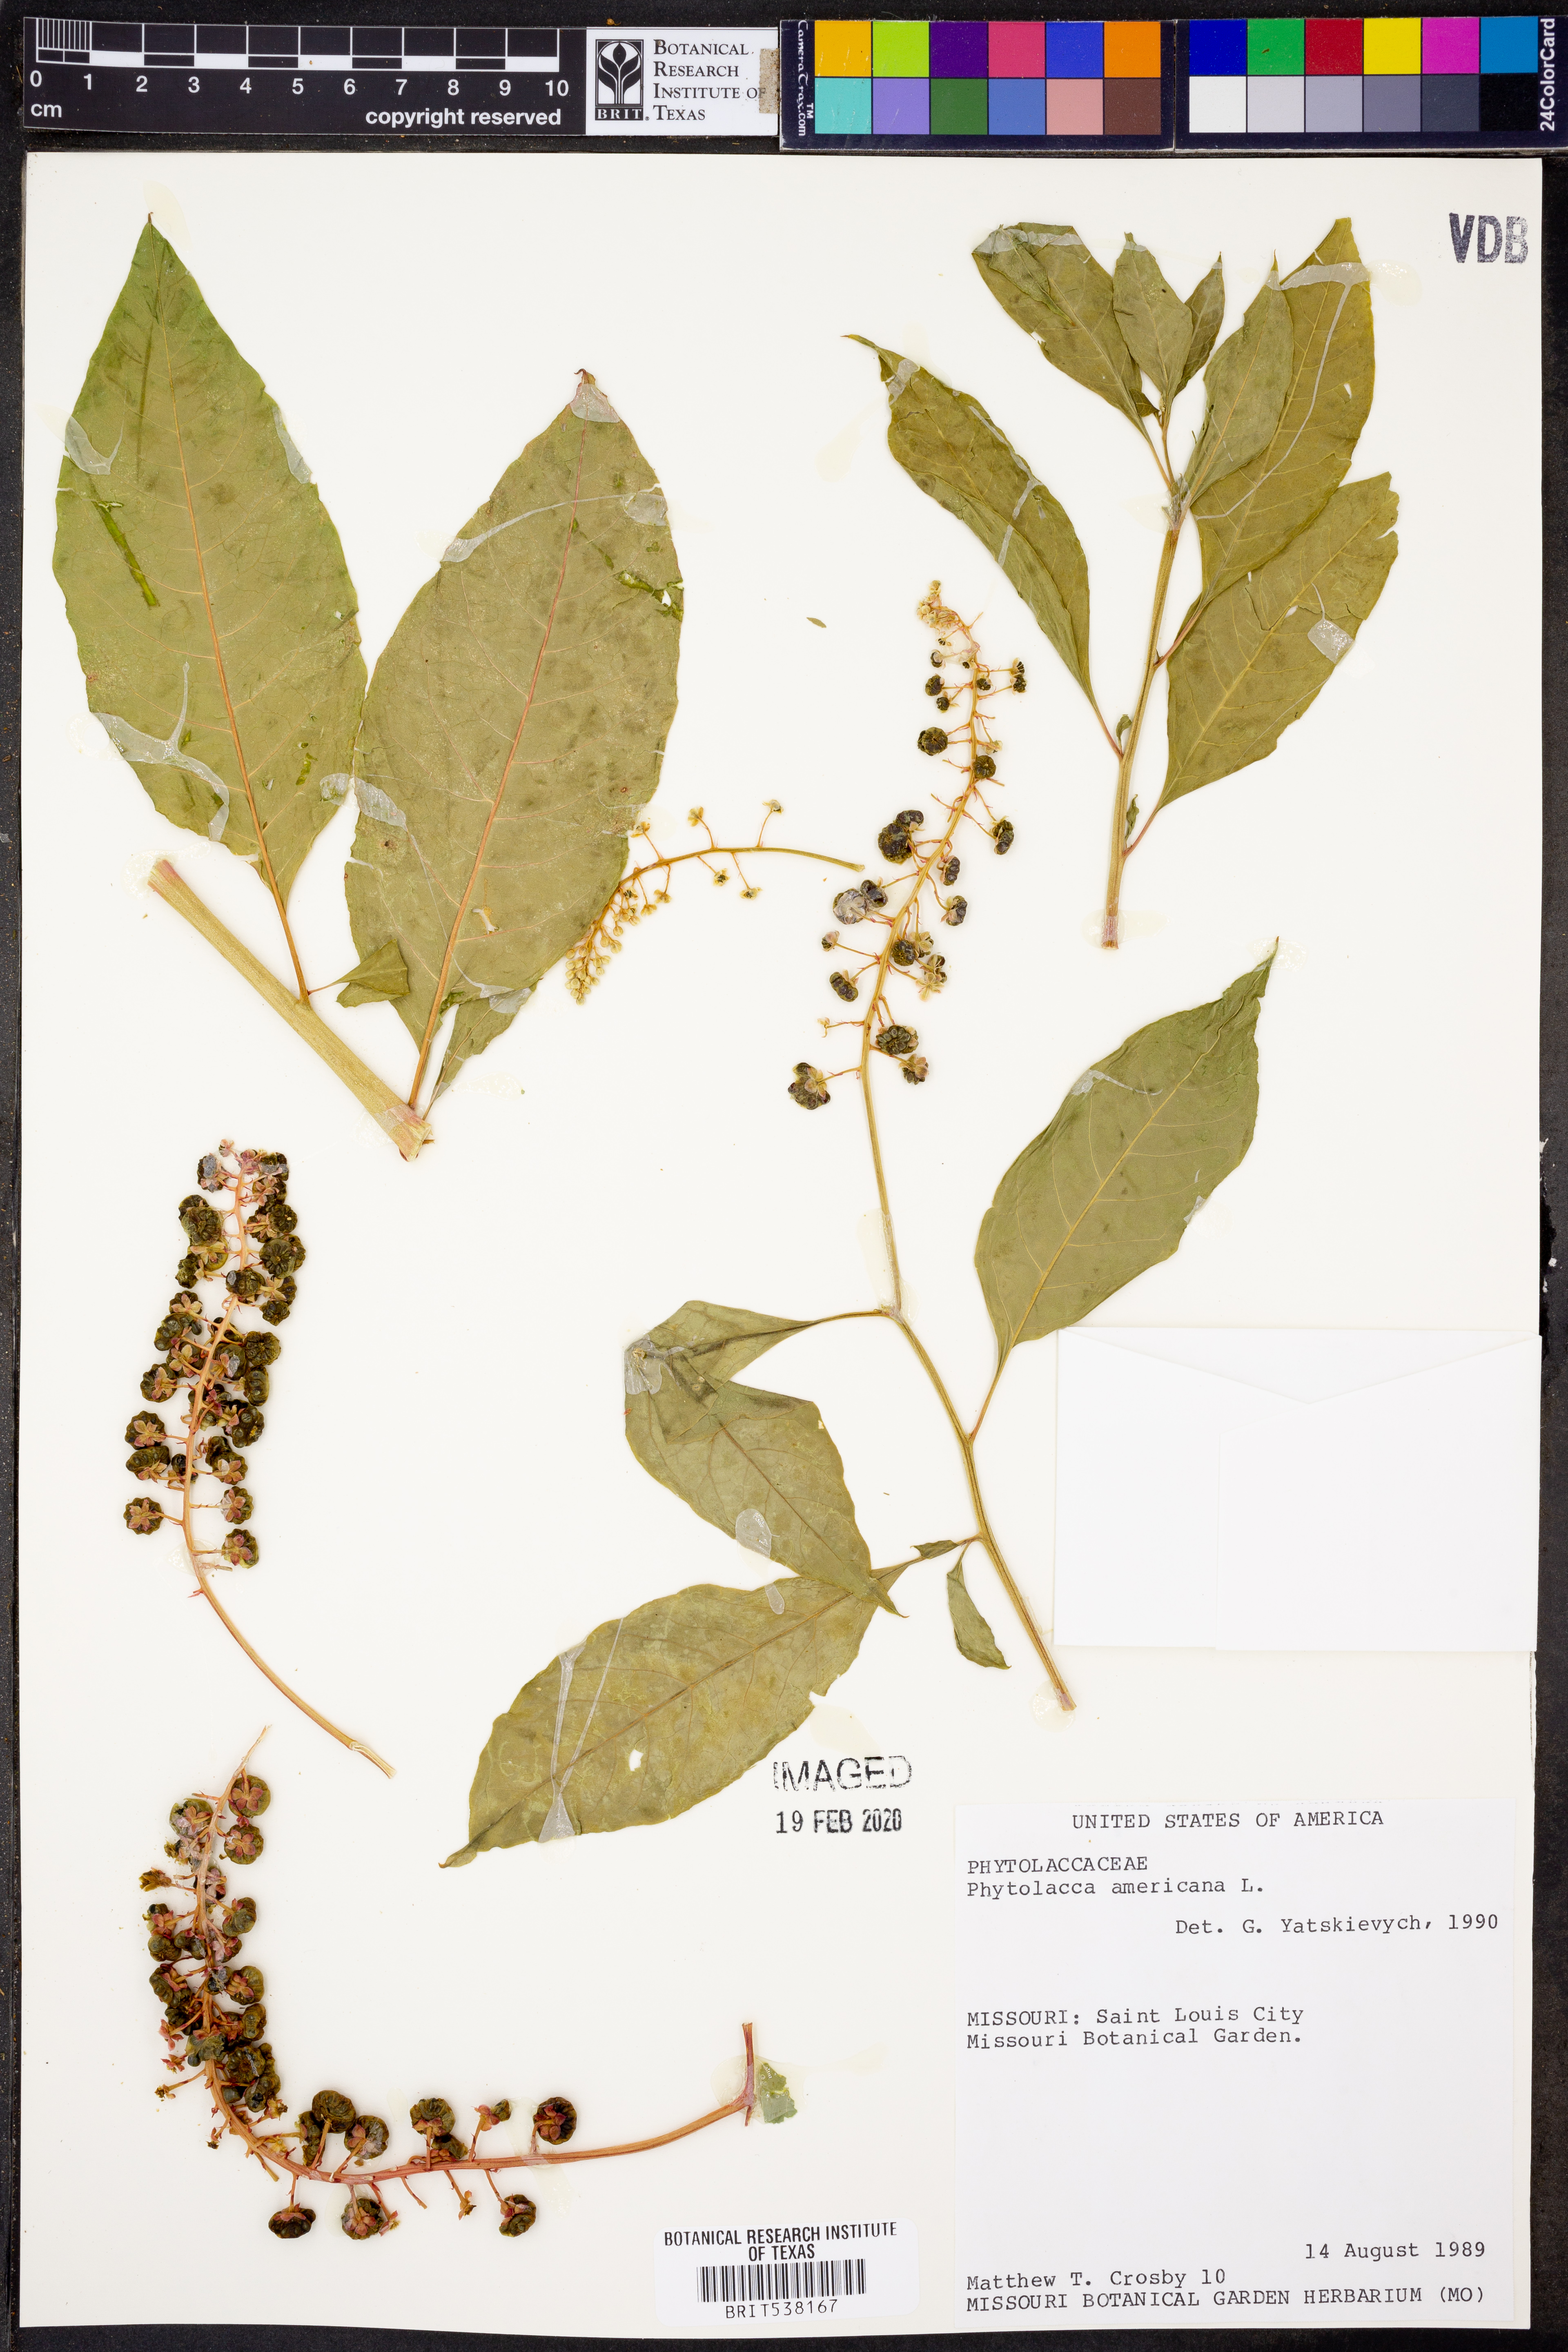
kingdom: Plantae
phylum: Tracheophyta
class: Magnoliopsida
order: Caryophyllales
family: Phytolaccaceae
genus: Phytolacca
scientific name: Phytolacca americana
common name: American pokeweed
